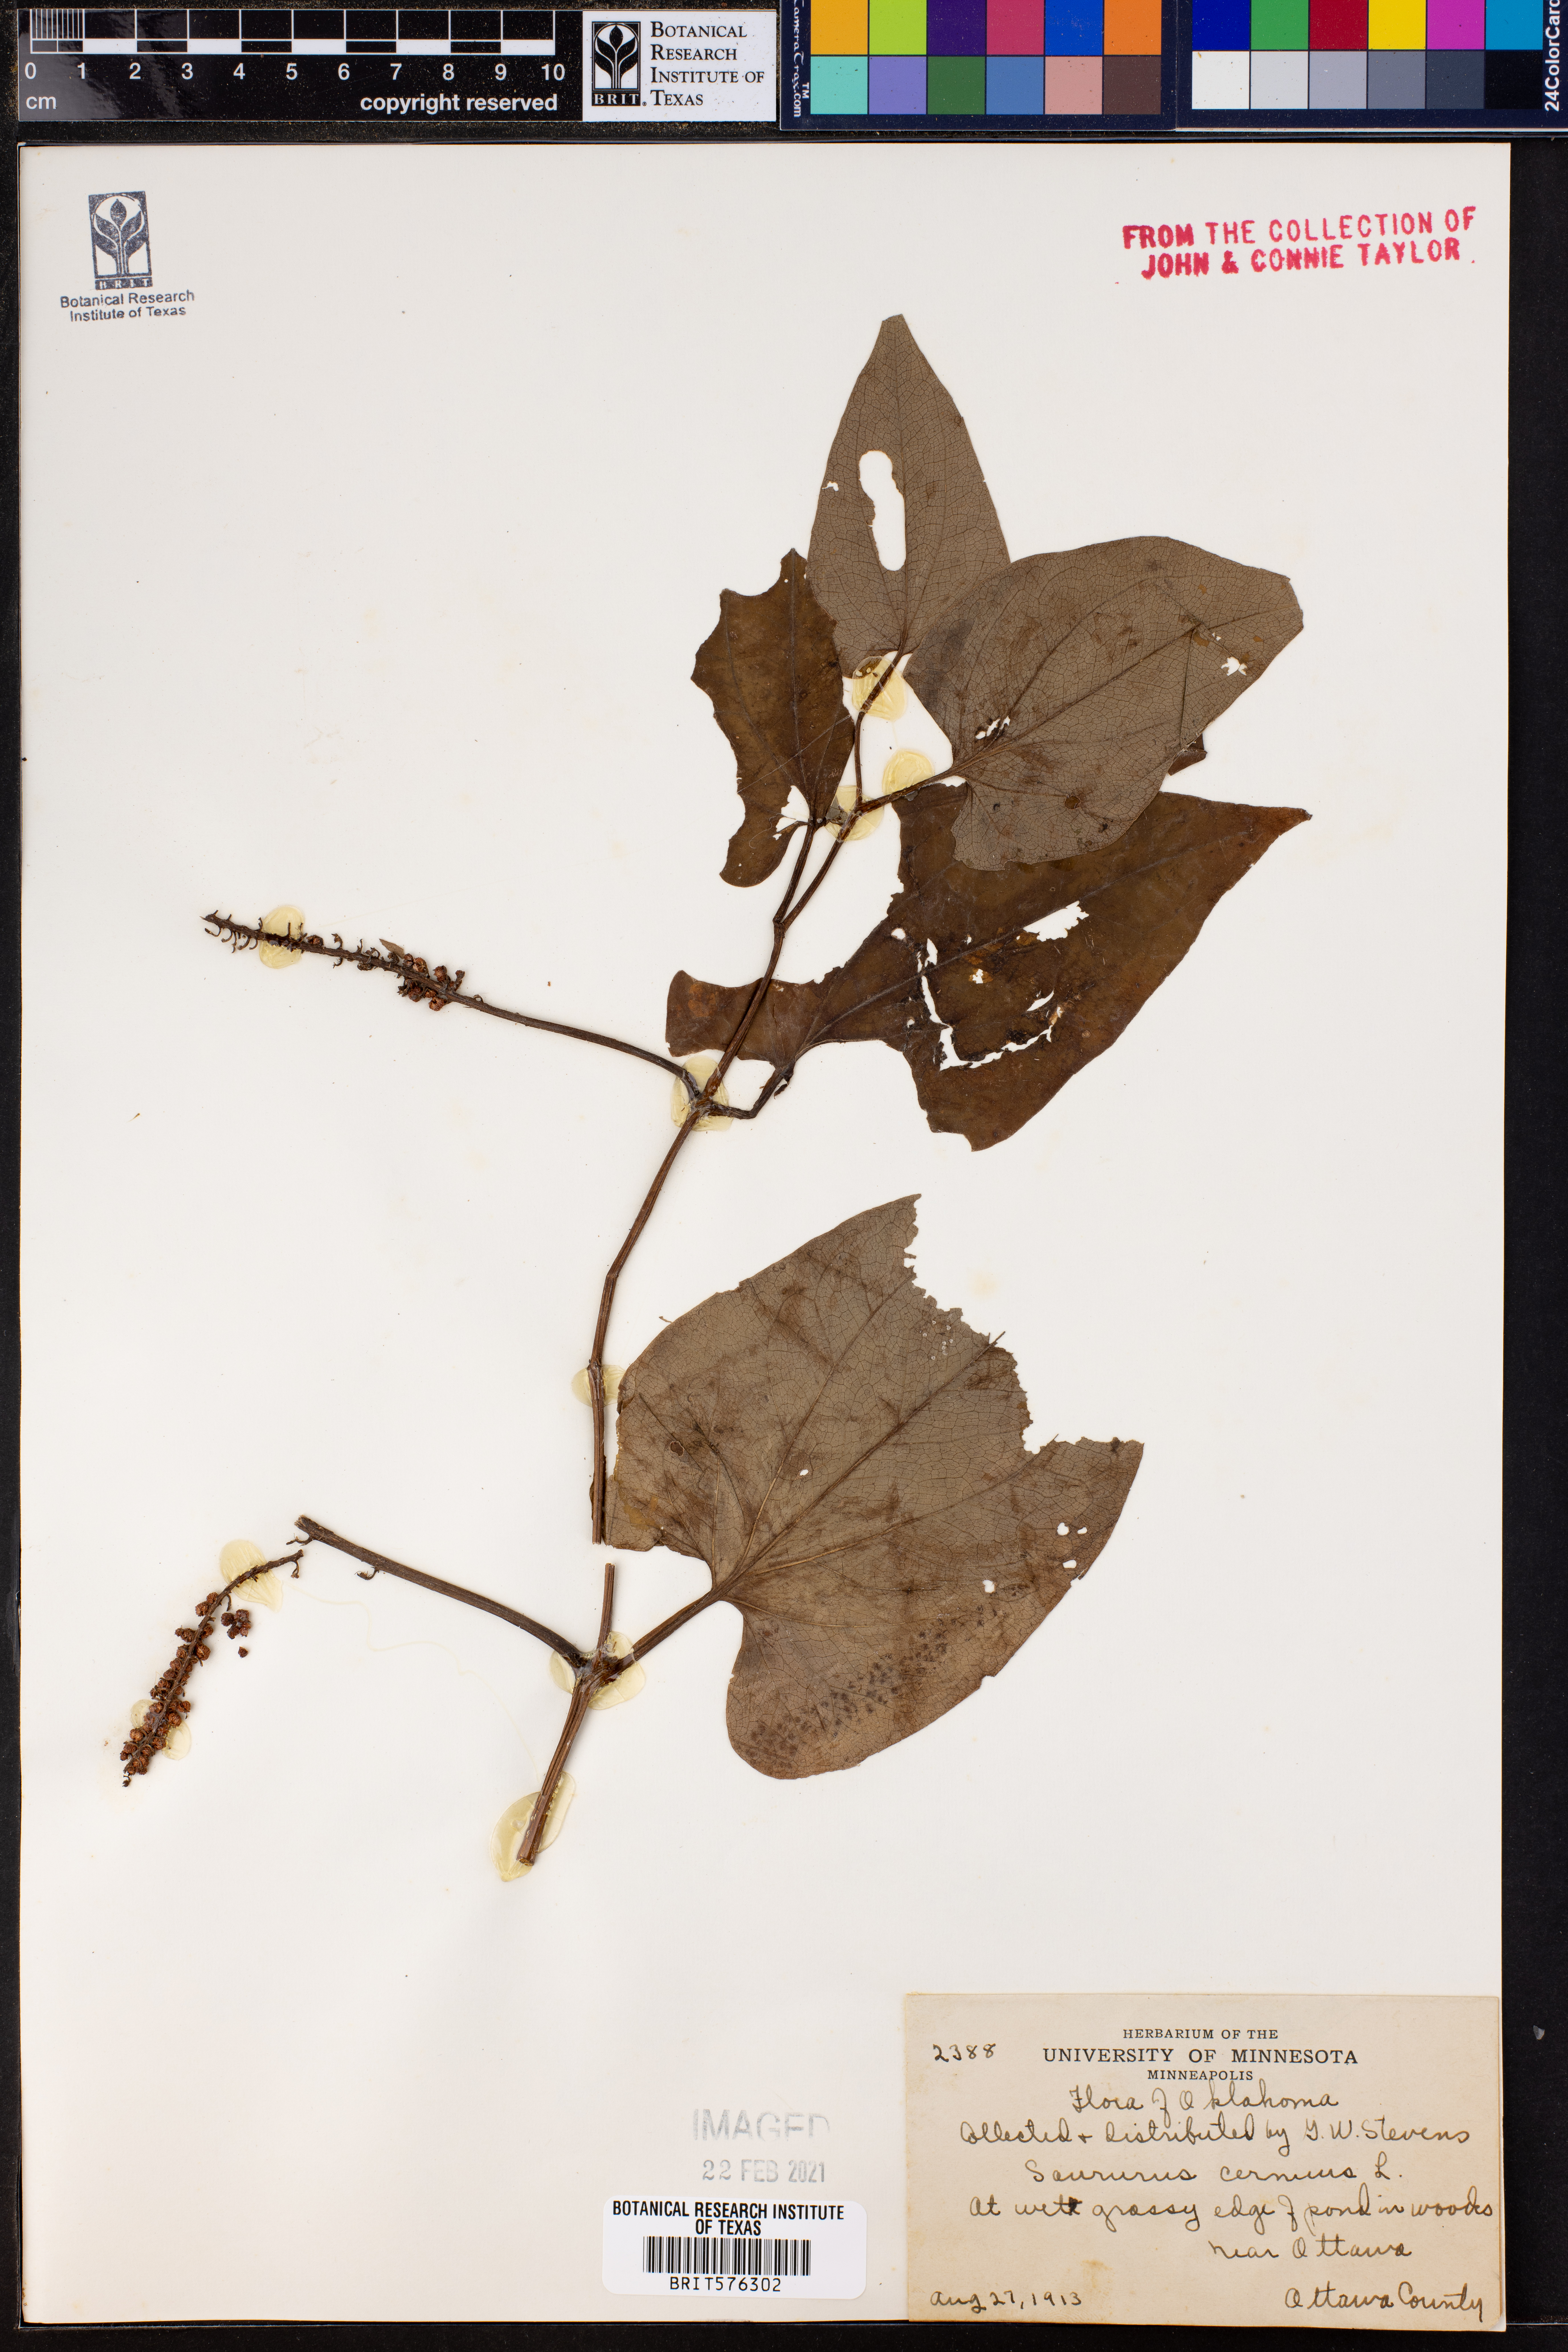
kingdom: Plantae
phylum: Tracheophyta
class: Magnoliopsida
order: Piperales
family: Saururaceae
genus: Saururus
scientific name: Saururus cernuus
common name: Lizard's-tail
